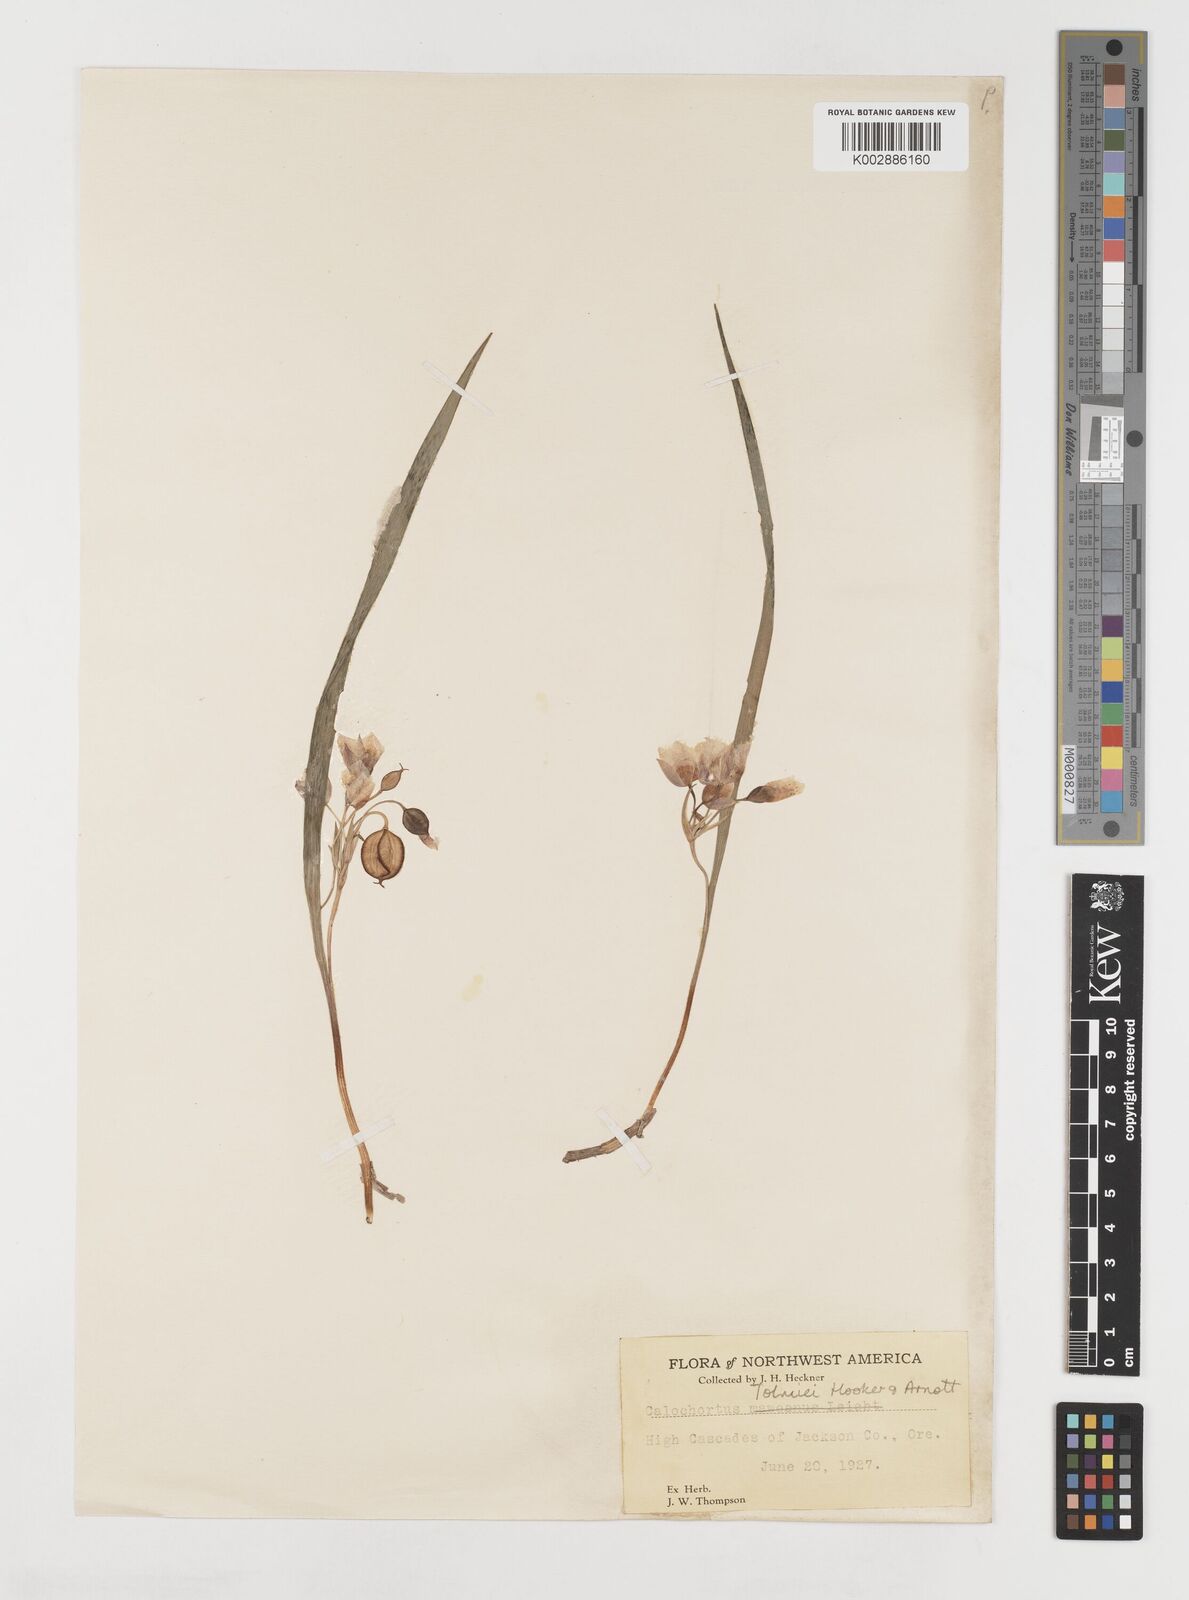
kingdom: Plantae
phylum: Tracheophyta
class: Liliopsida
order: Liliales
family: Liliaceae
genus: Calochortus
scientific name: Calochortus tolmiei
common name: Pussy-ears
